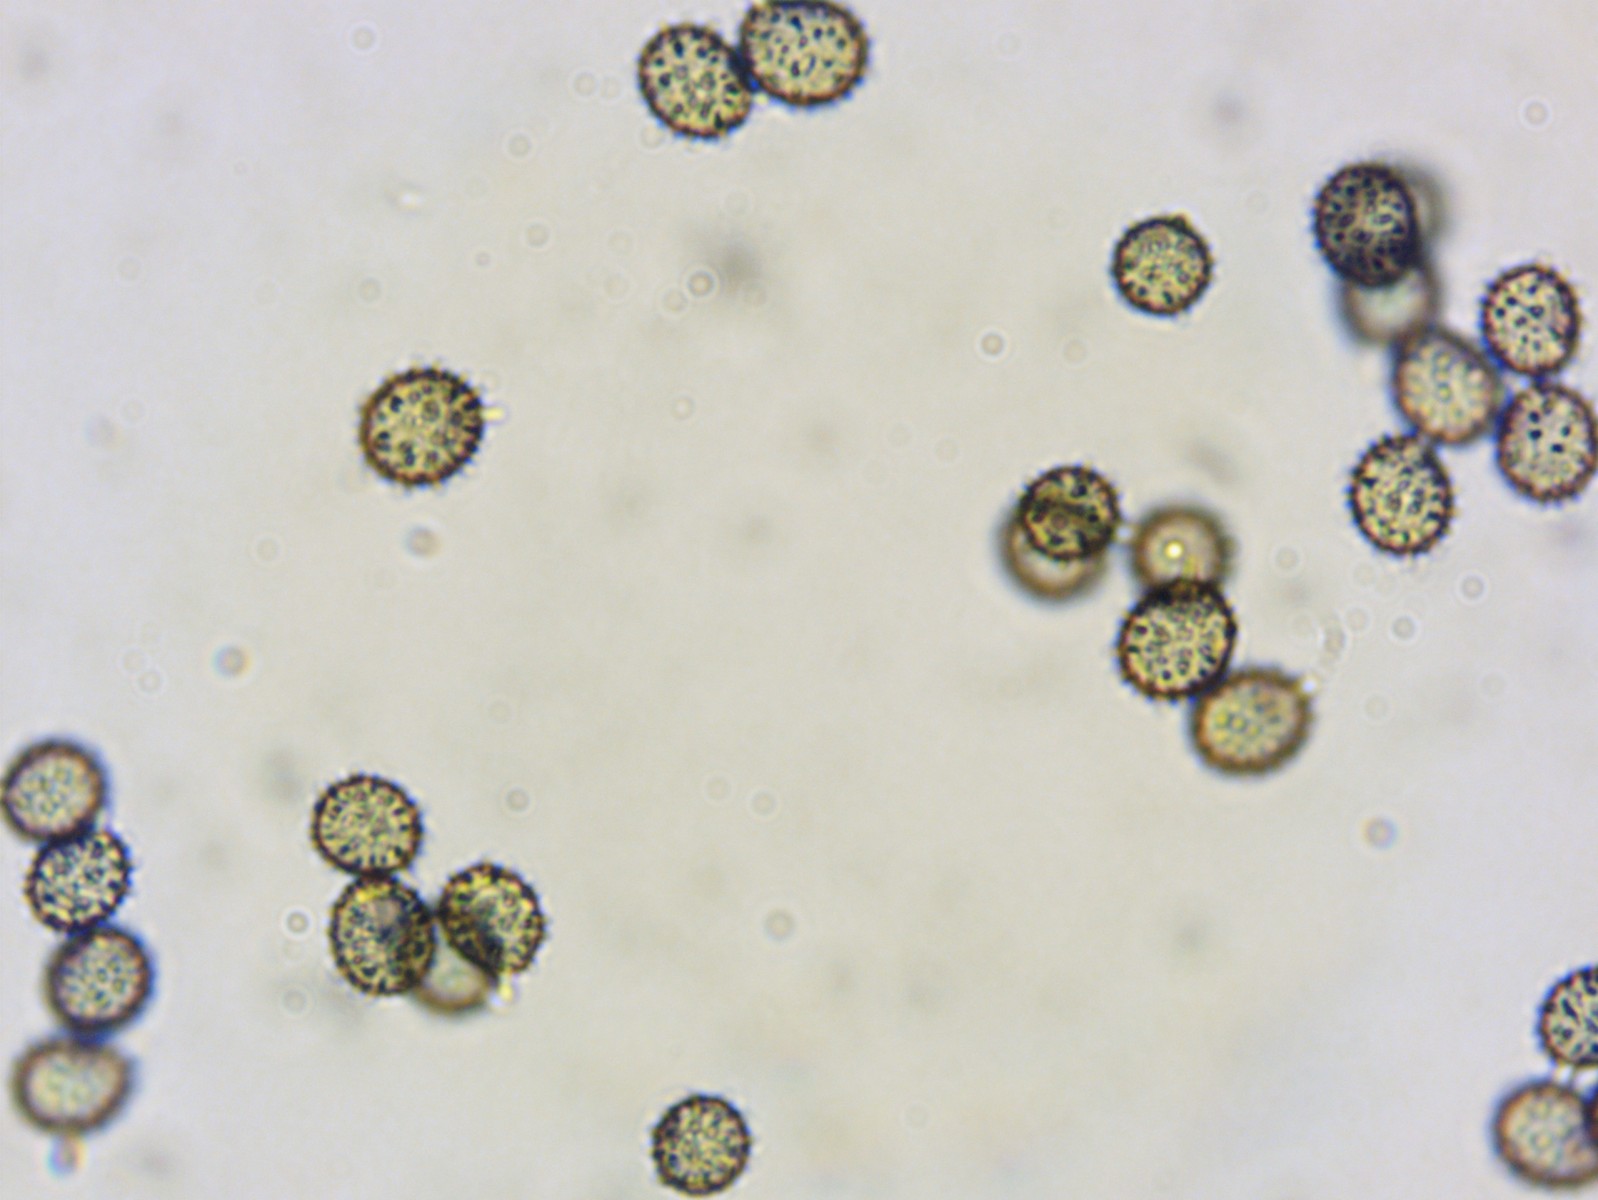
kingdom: Fungi
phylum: Basidiomycota
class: Agaricomycetes
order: Russulales
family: Russulaceae
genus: Russula
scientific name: Russula faginea
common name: bøge-skørhat
